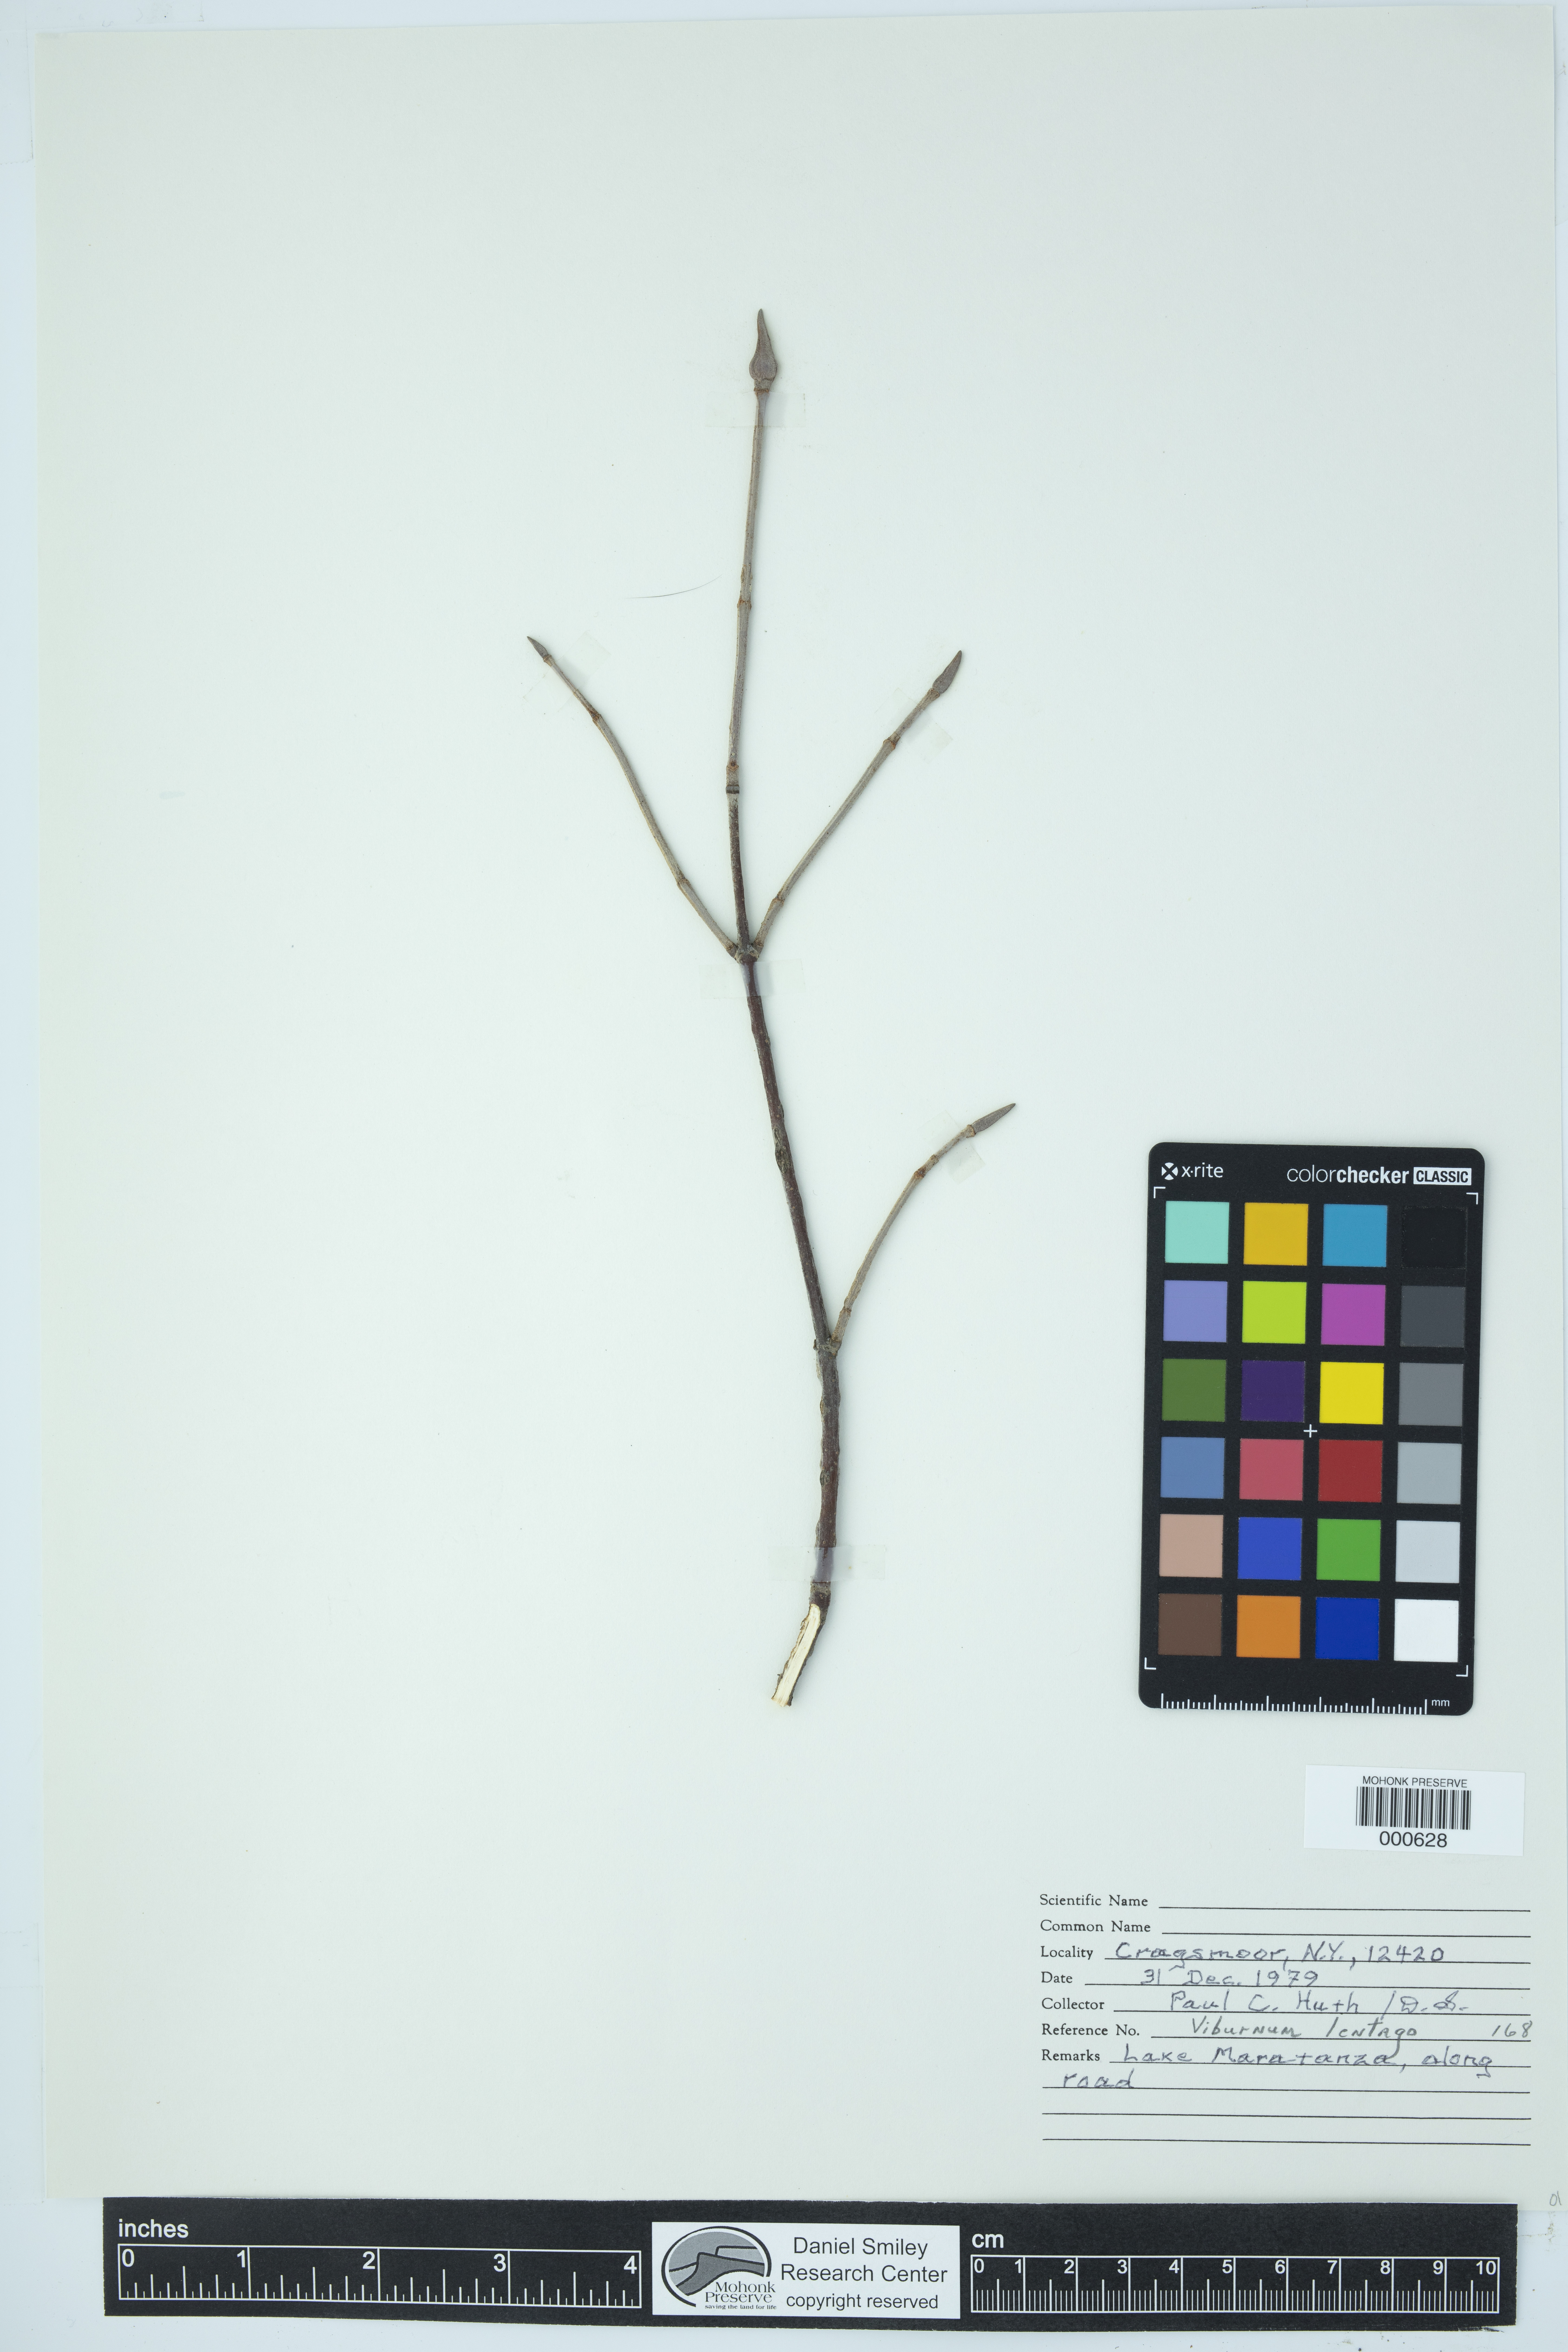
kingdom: Plantae
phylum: Tracheophyta
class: Magnoliopsida
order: Dipsacales
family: Viburnaceae
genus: Viburnum
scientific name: Viburnum lentago
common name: Black haw
